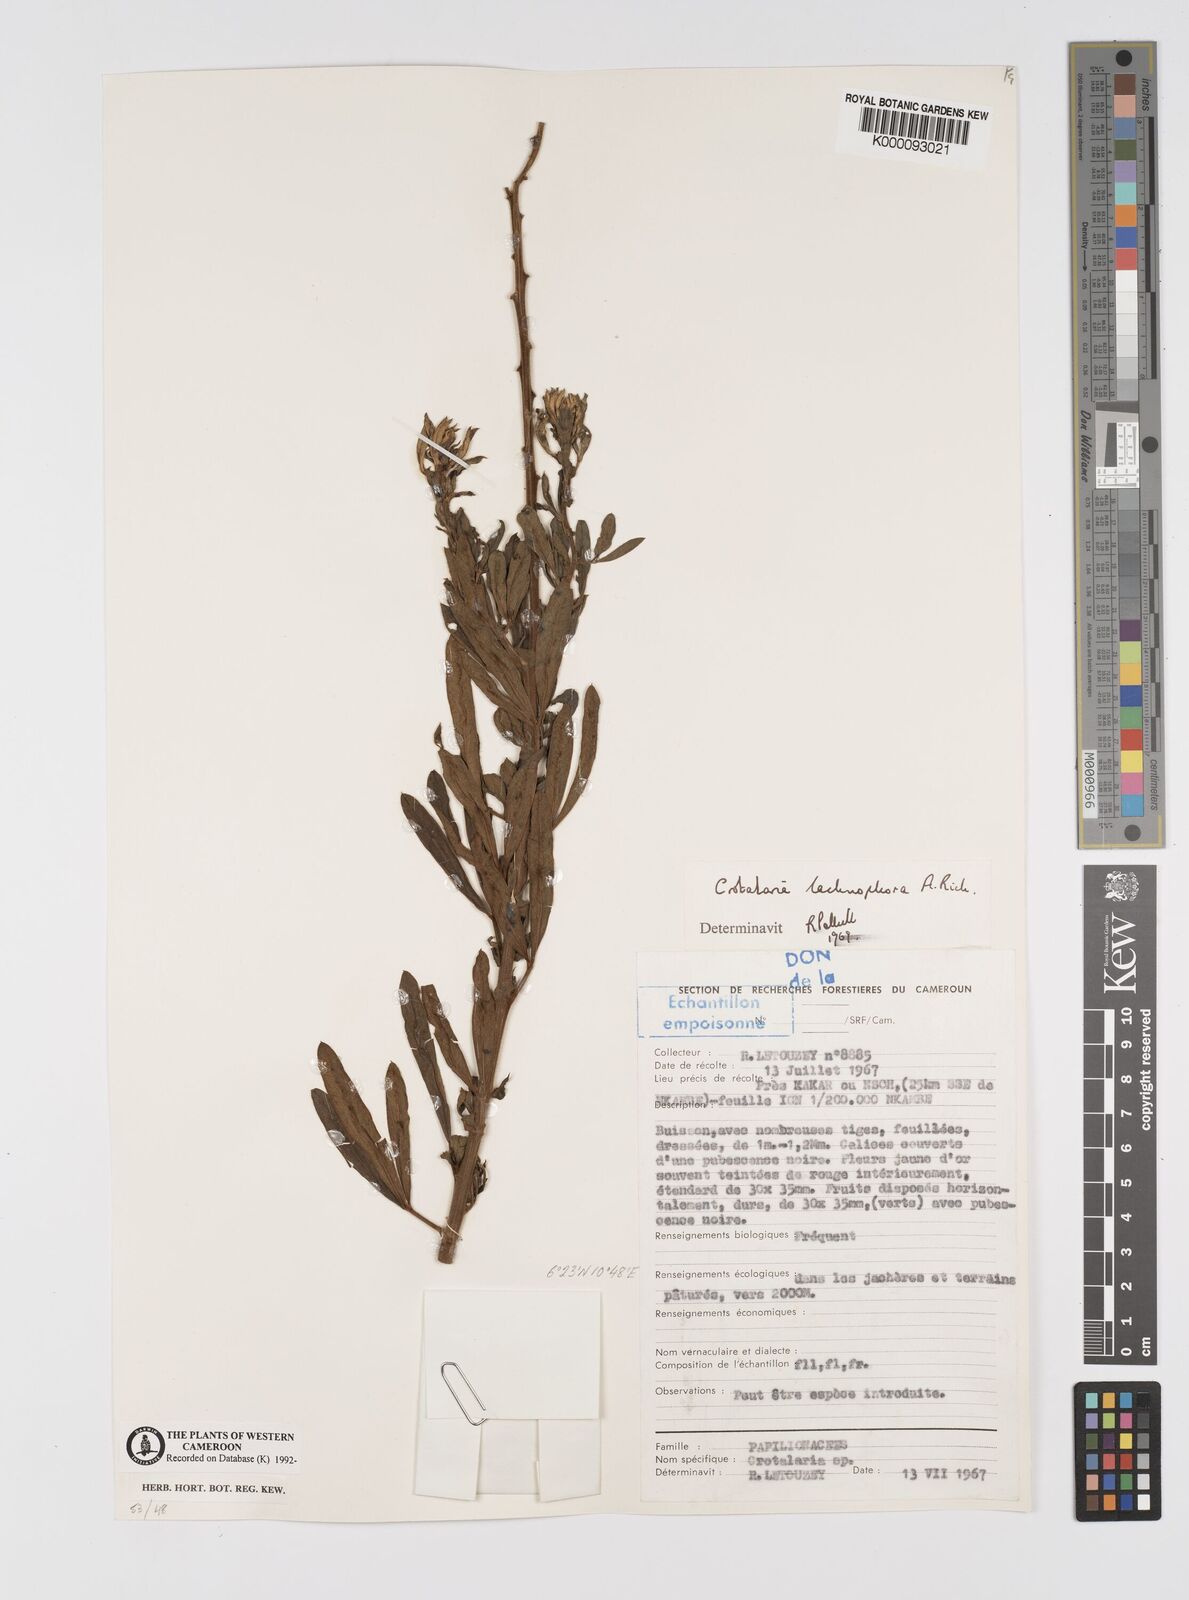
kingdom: Plantae
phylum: Tracheophyta
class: Magnoliopsida
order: Fabales
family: Fabaceae
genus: Crotalaria
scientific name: Crotalaria lachnophora
